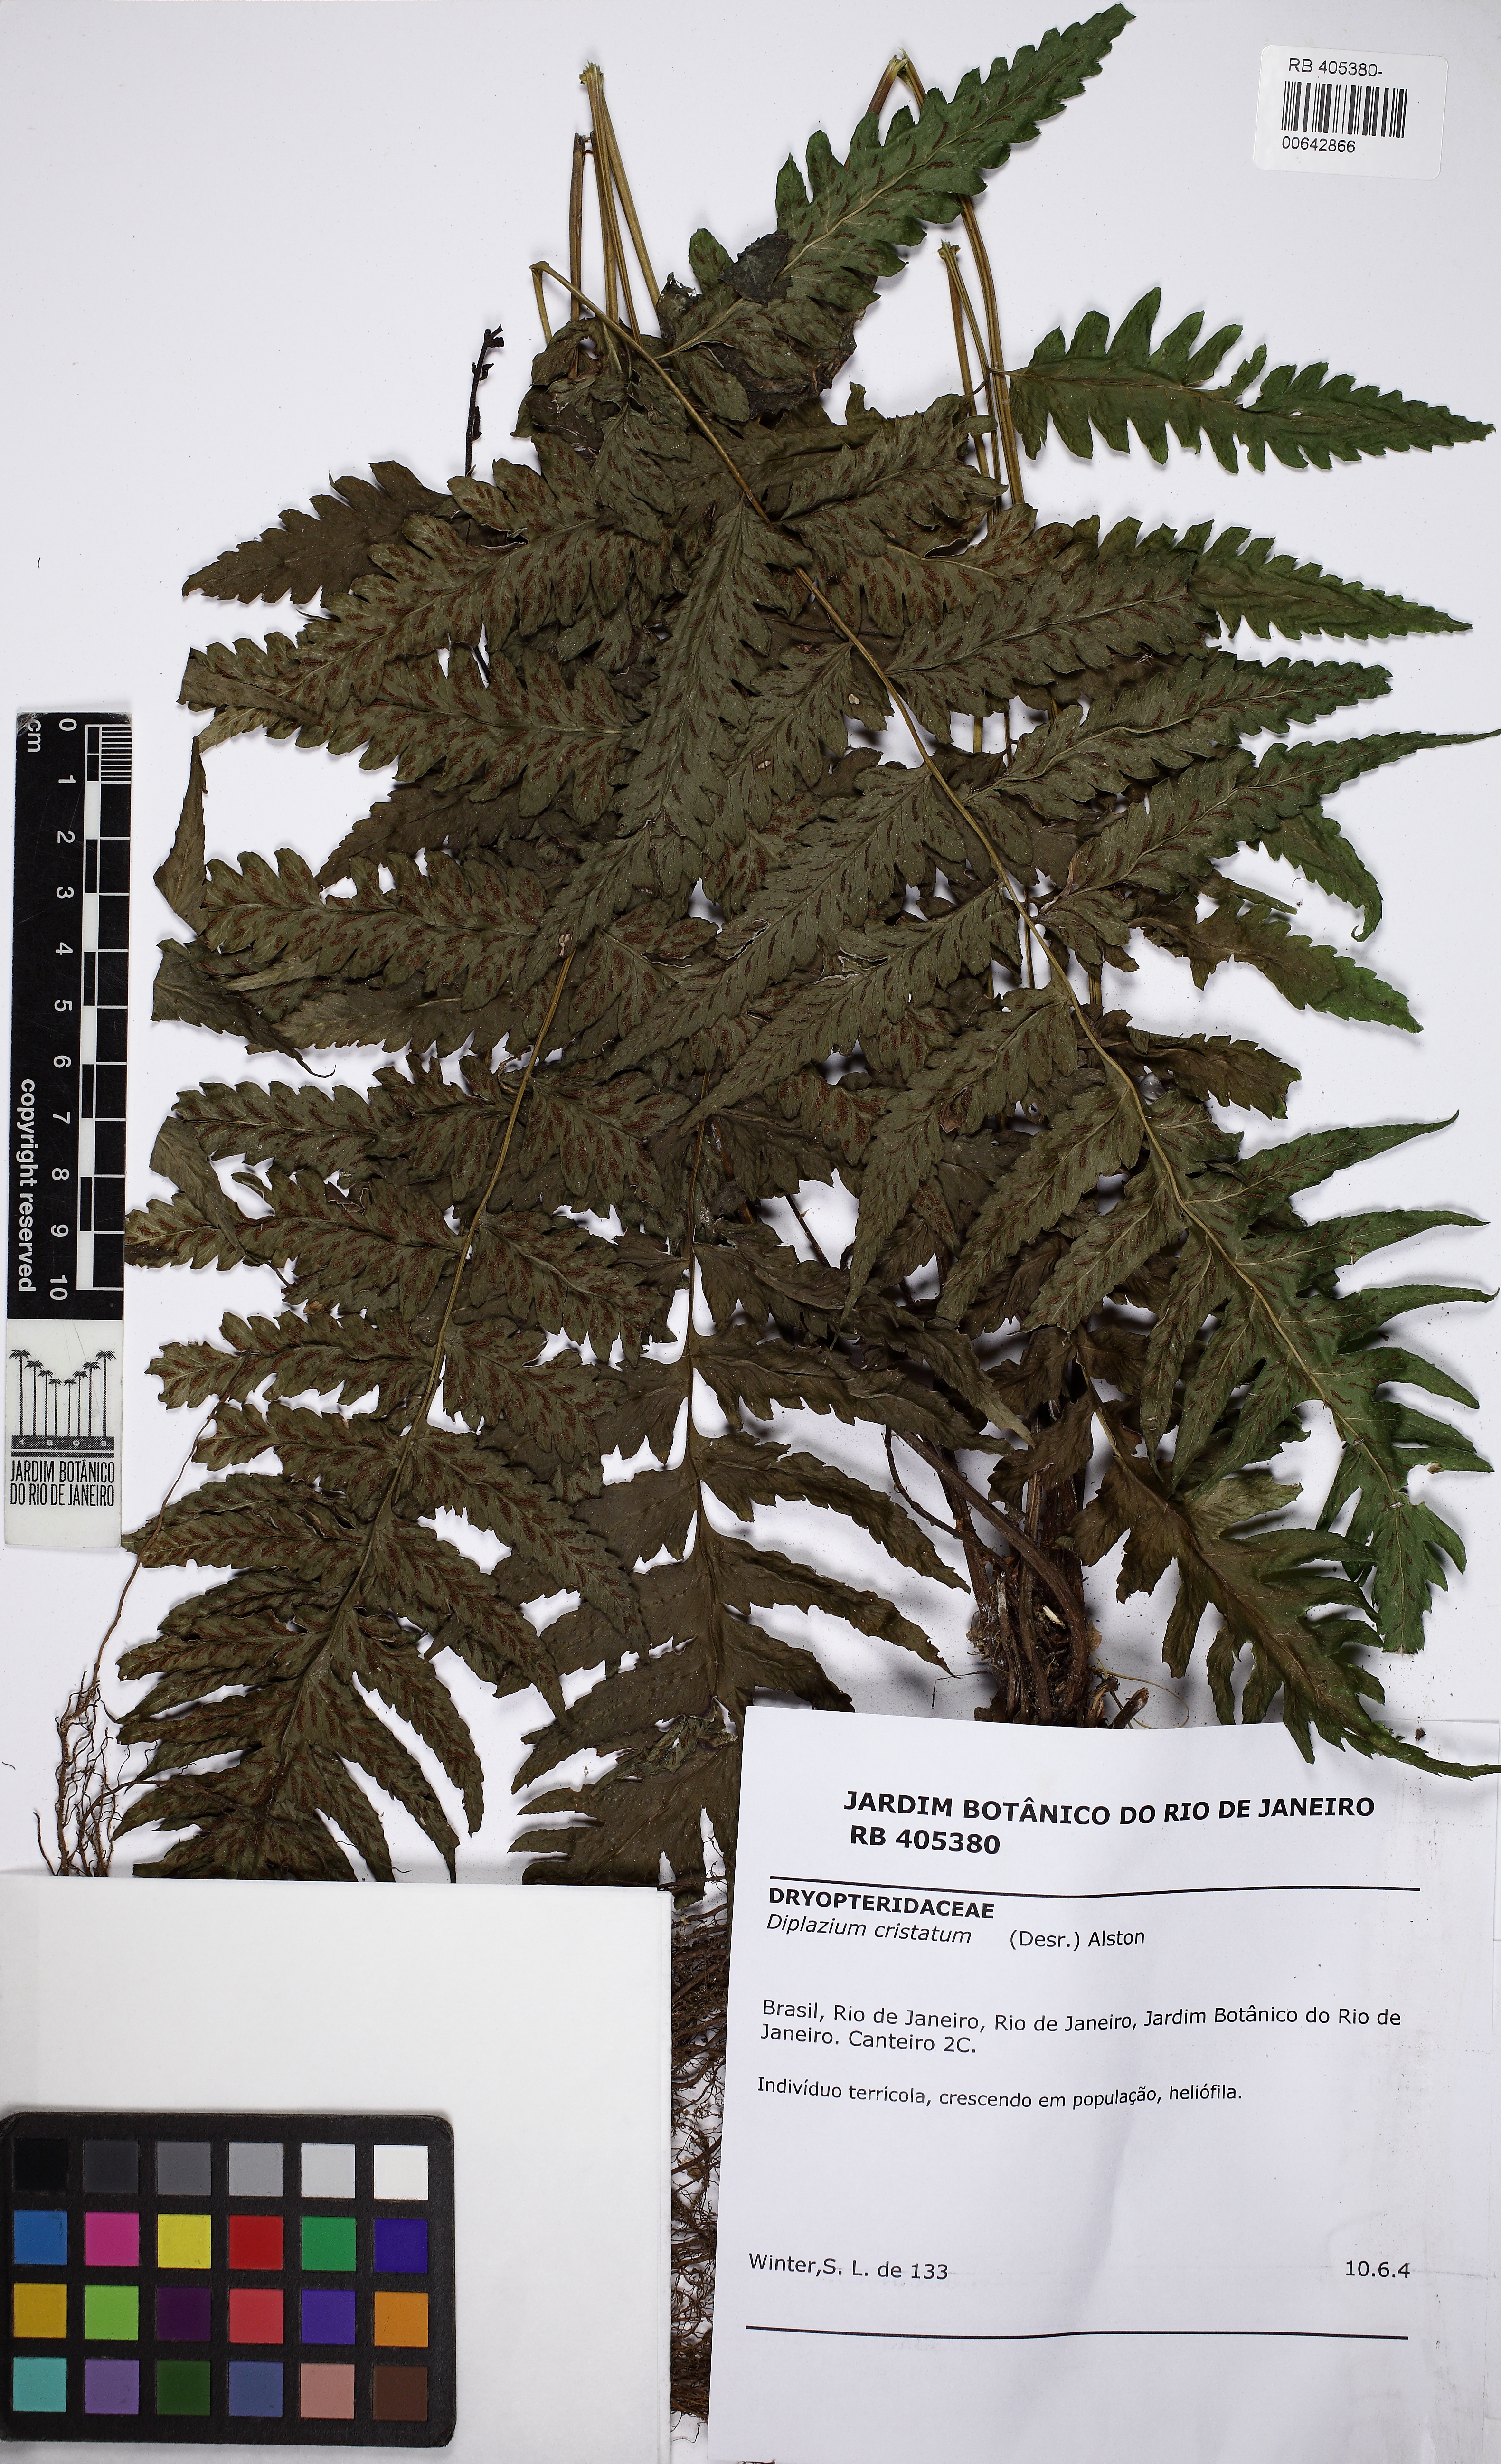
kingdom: Plantae
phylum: Tracheophyta
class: Polypodiopsida
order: Polypodiales
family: Athyriaceae
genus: Diplazium
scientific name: Diplazium cristatum
